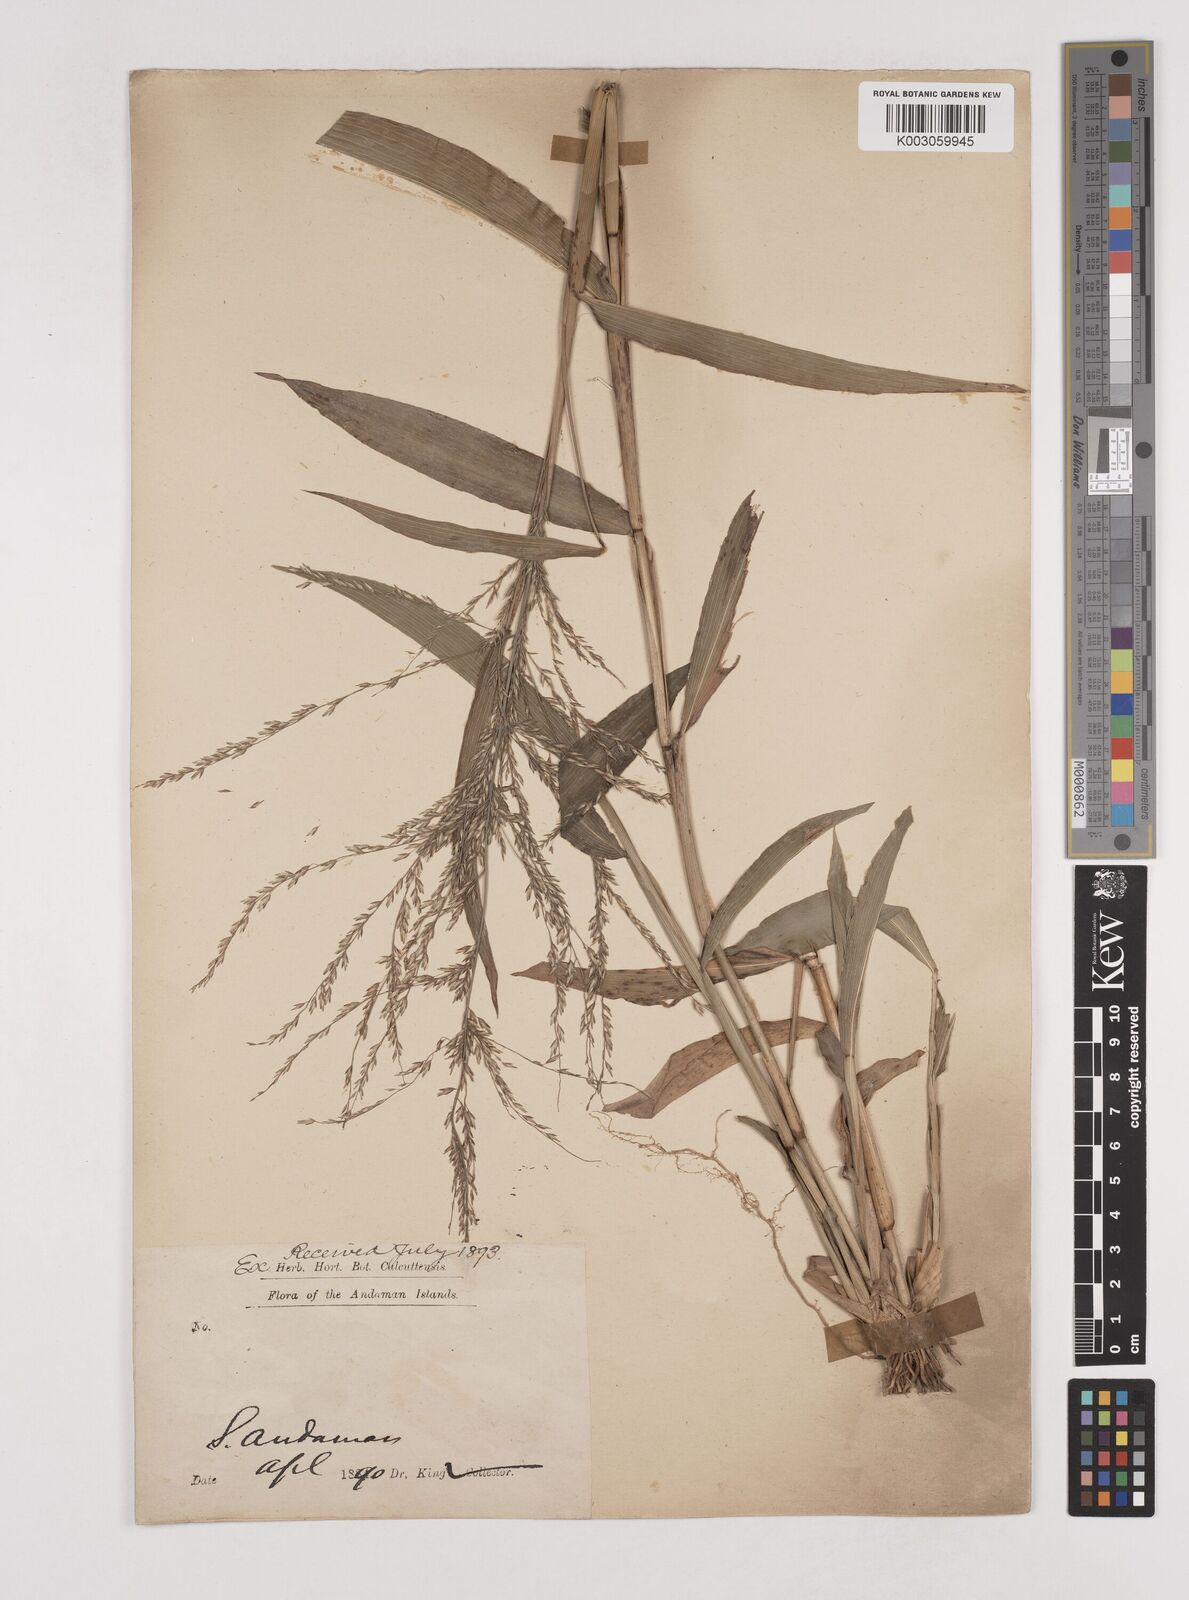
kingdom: Plantae
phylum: Tracheophyta
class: Liliopsida
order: Poales
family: Poaceae
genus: Centotheca
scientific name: Centotheca lappacea
